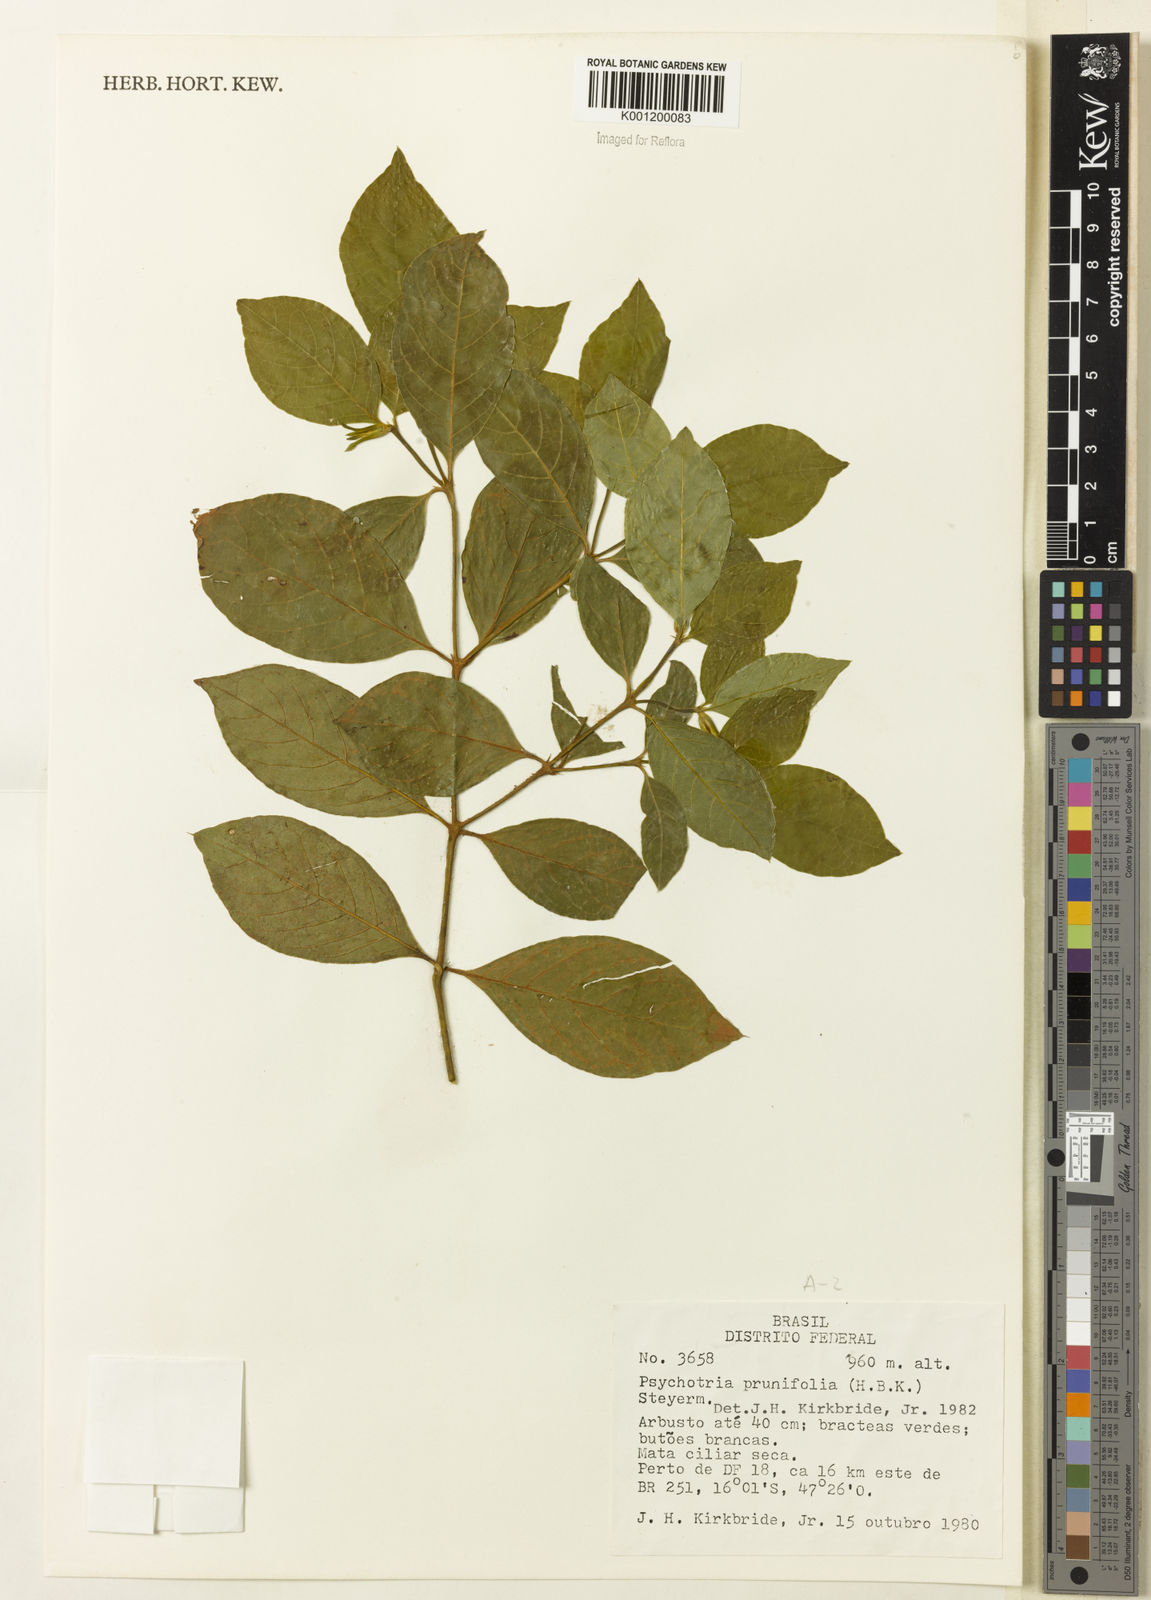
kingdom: Plantae
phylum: Tracheophyta
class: Magnoliopsida
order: Gentianales
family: Rubiaceae
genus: Palicourea
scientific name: Palicourea prunifolia
